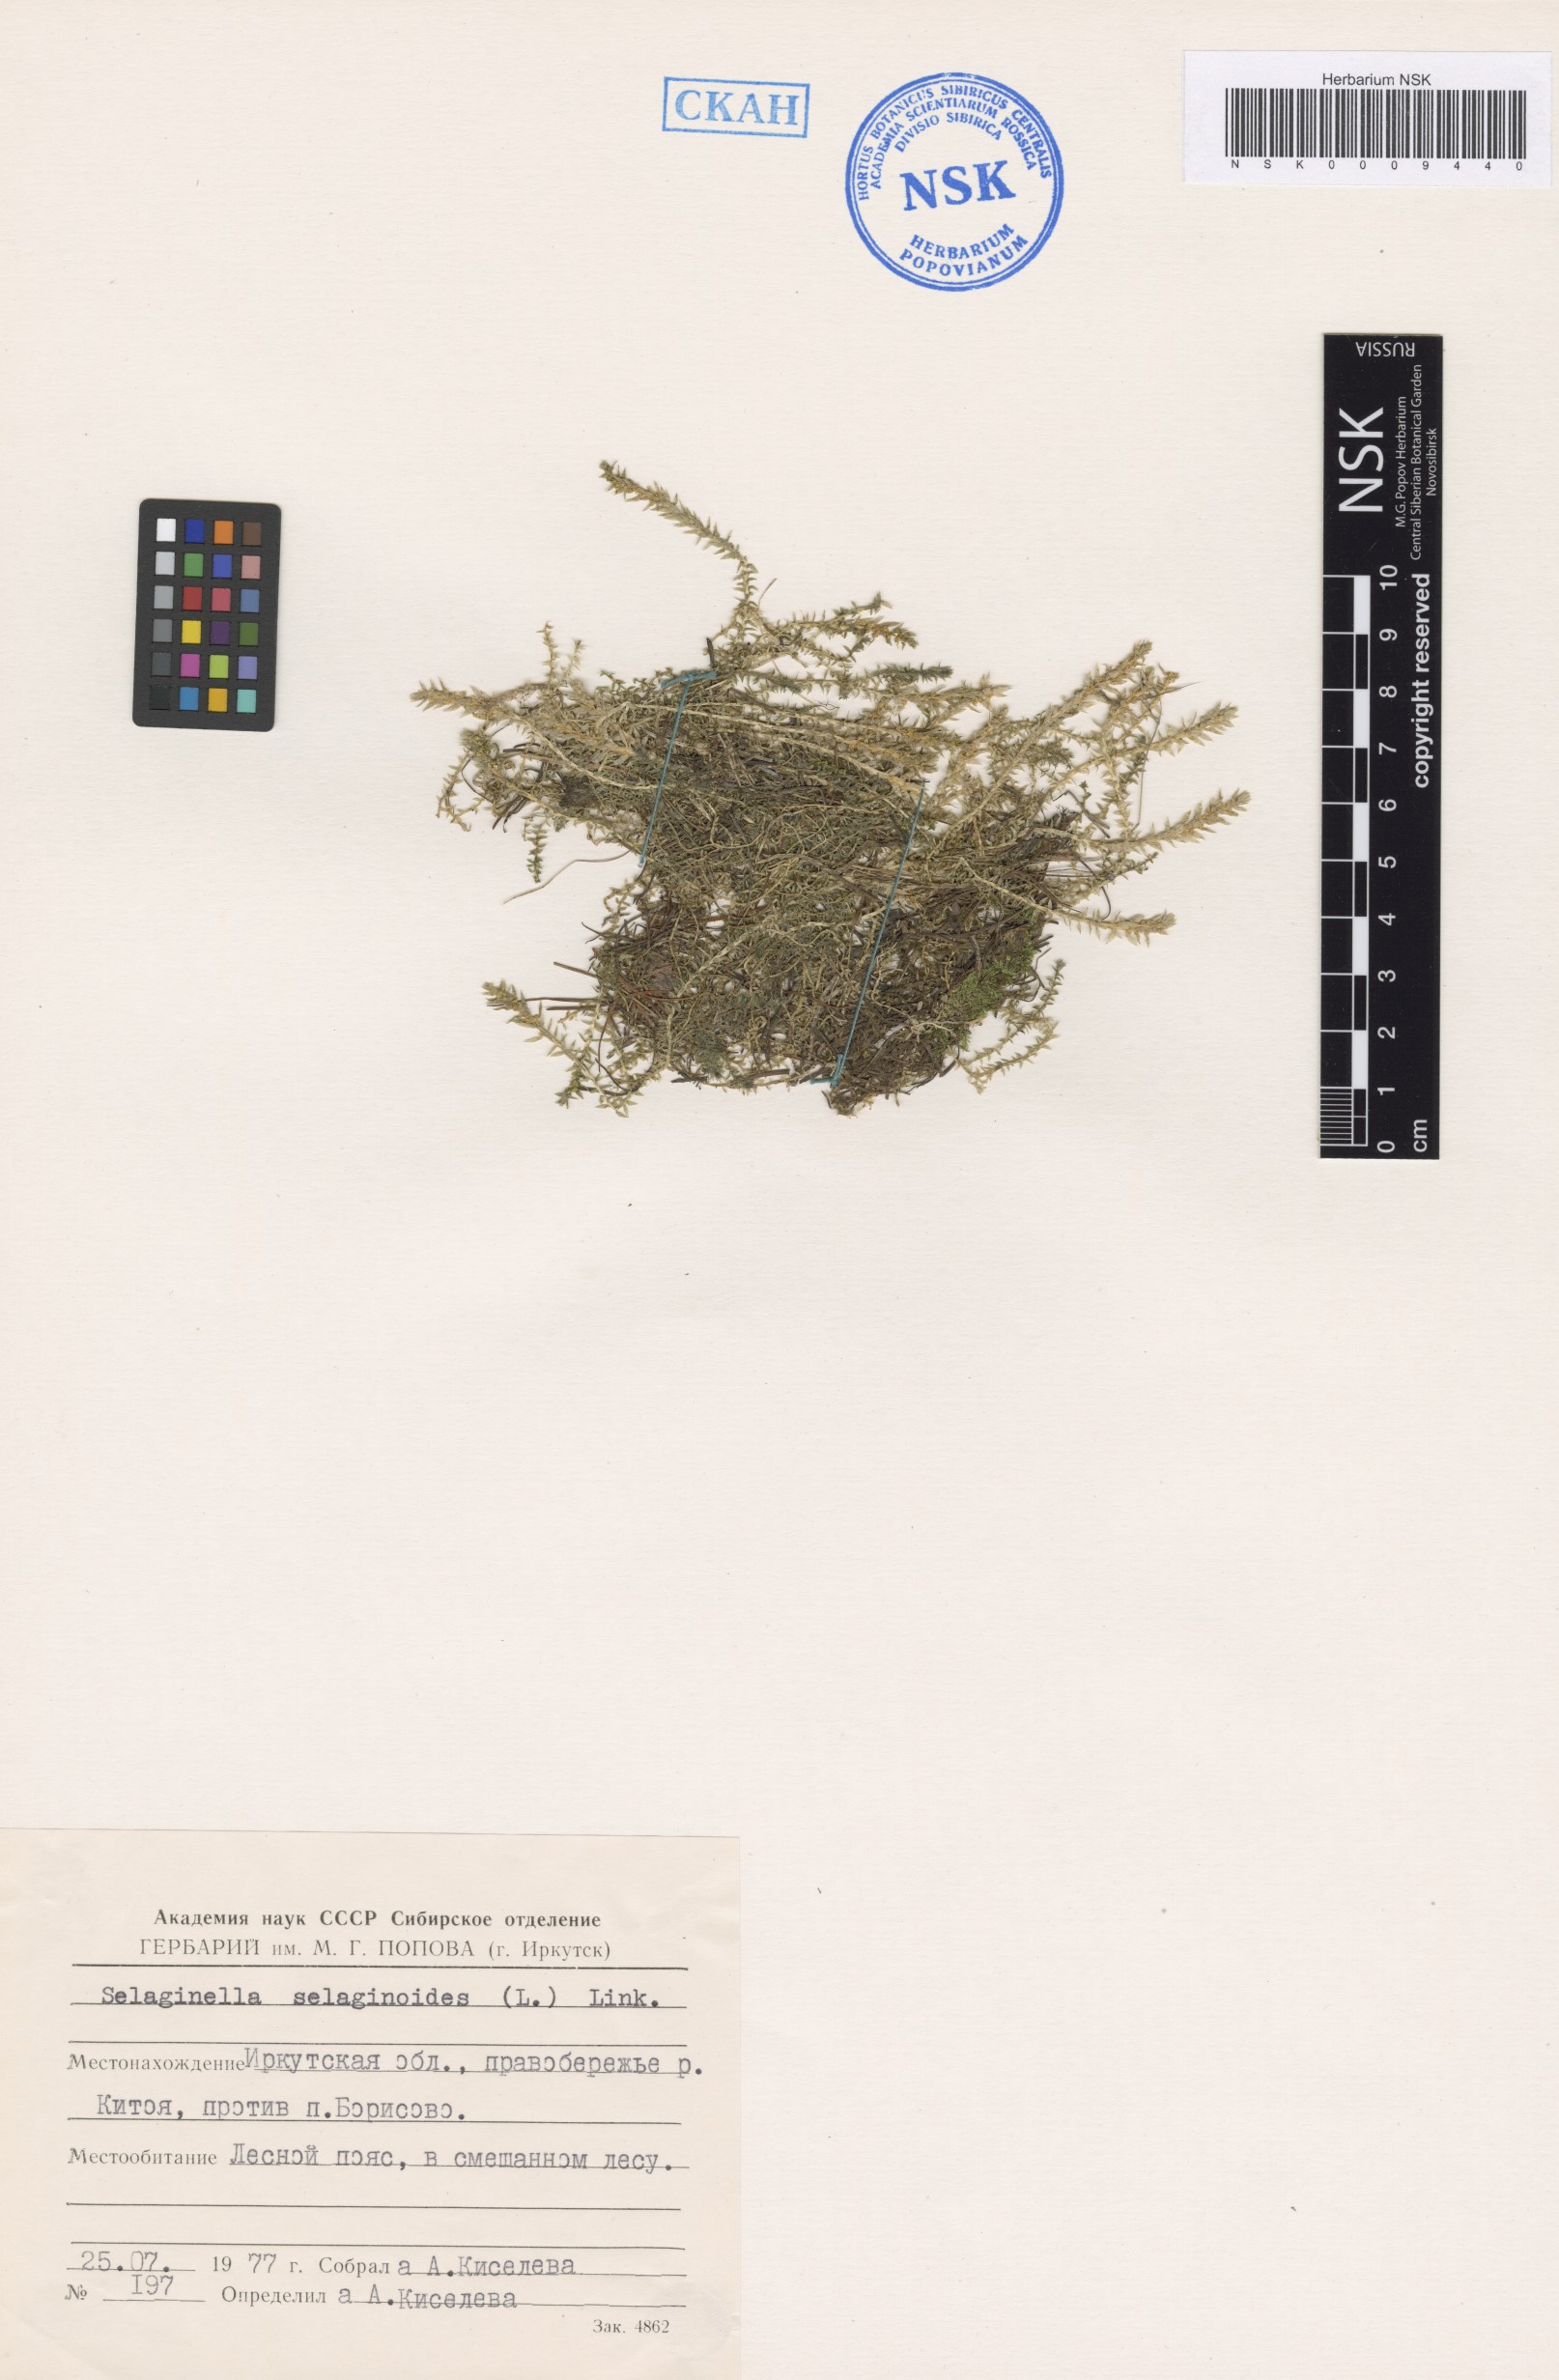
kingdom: Plantae
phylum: Tracheophyta
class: Lycopodiopsida
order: Selaginellales
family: Selaginellaceae
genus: Selaginella
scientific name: Selaginella selaginoides
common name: Prickly mountain-moss
